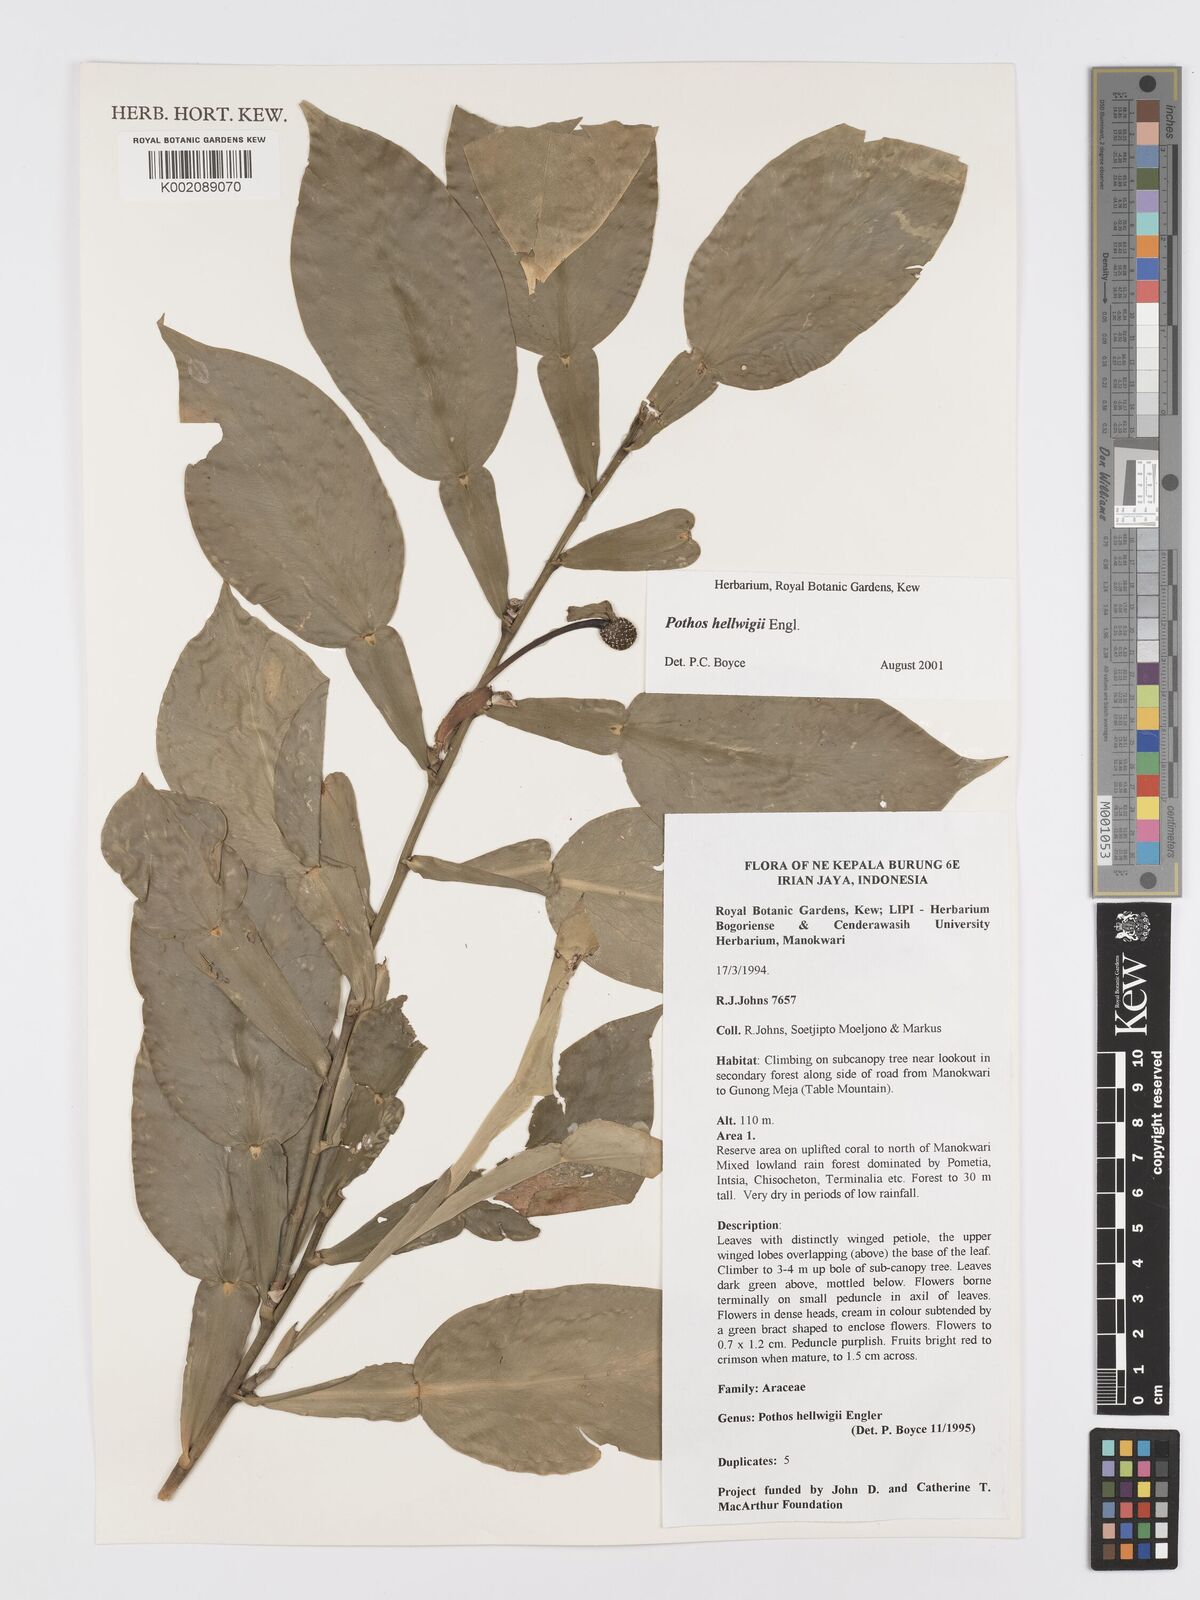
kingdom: Plantae
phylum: Tracheophyta
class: Liliopsida
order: Alismatales
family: Araceae
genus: Pothos
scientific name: Pothos hellwigii
